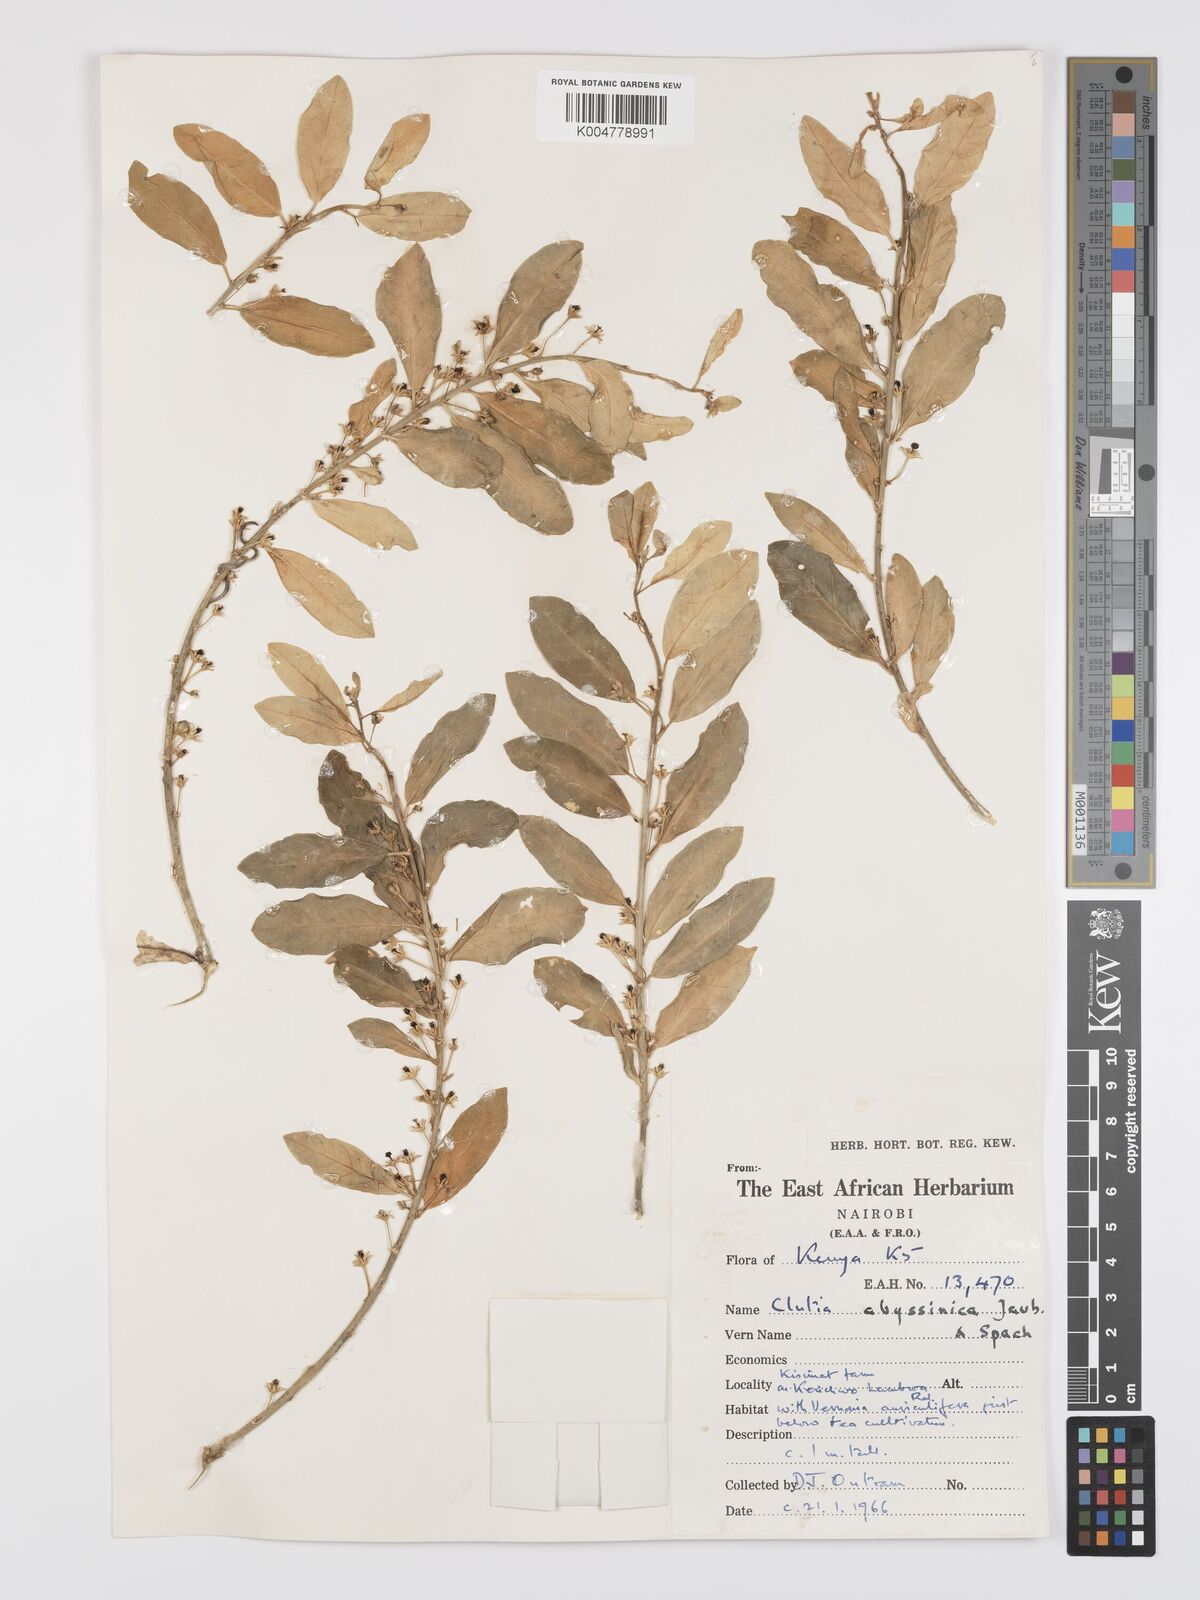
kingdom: Plantae
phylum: Tracheophyta
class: Magnoliopsida
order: Malpighiales
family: Peraceae
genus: Clutia
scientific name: Clutia abyssinica
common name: Large lightning bush
